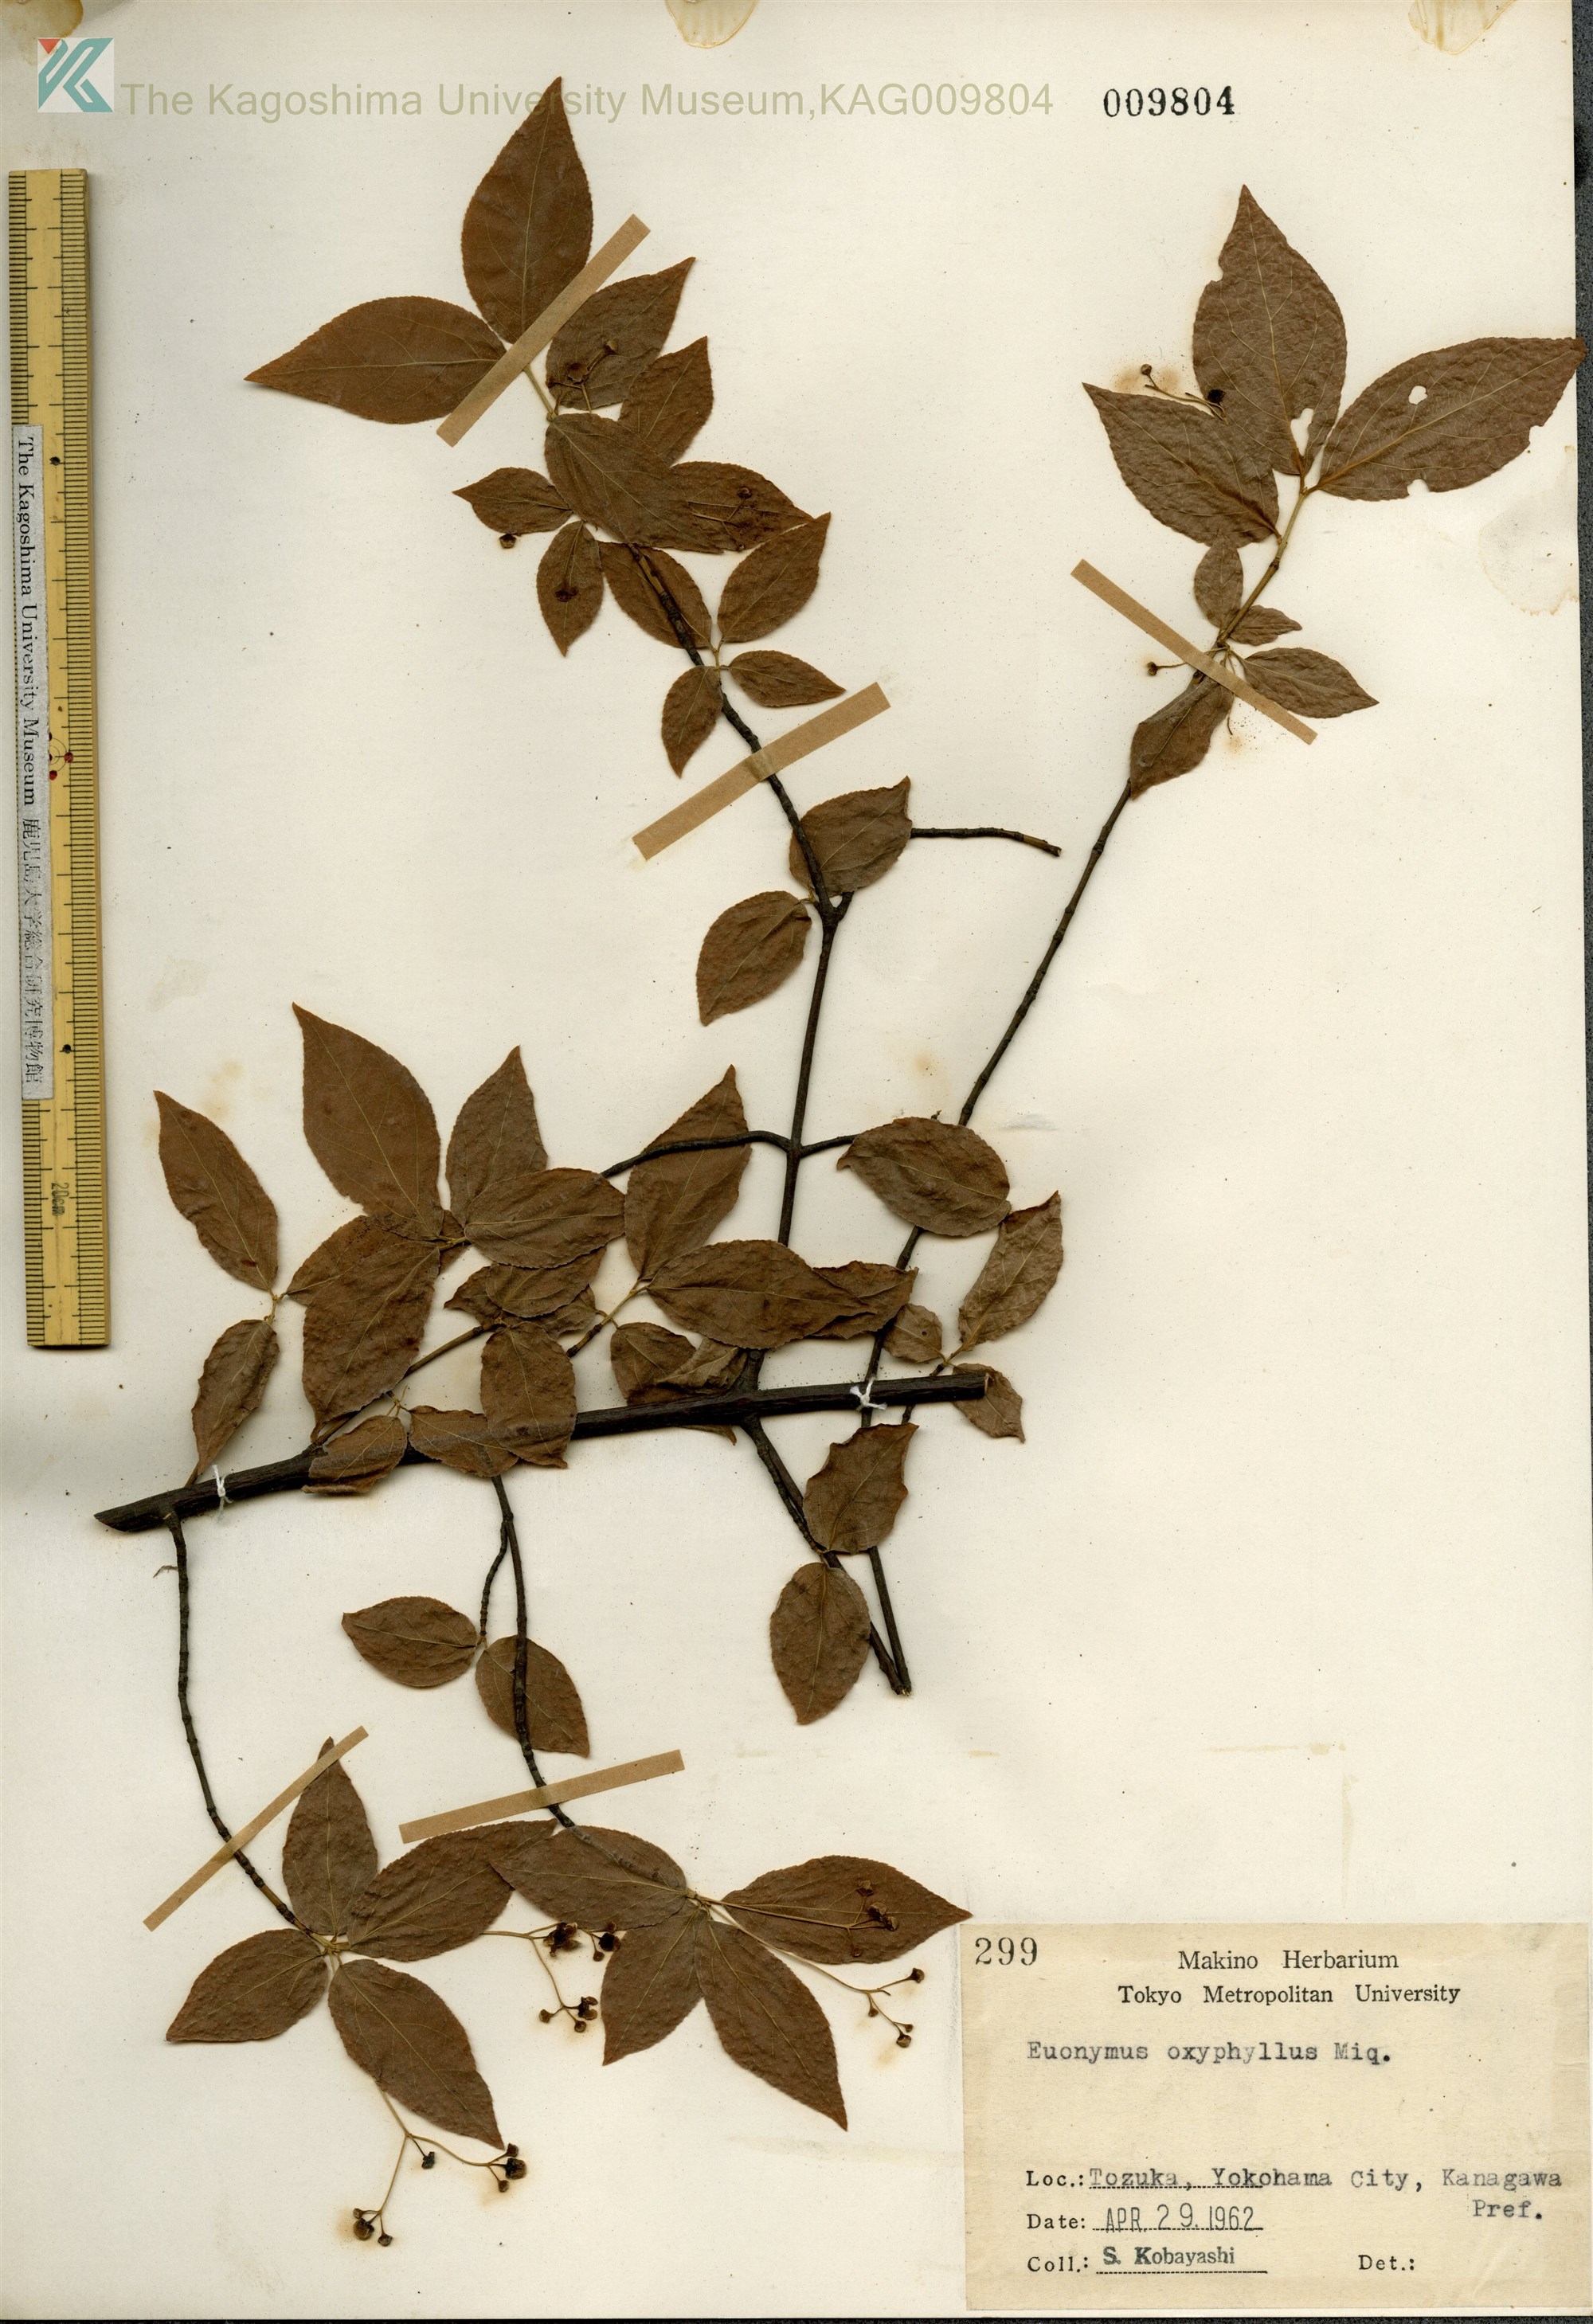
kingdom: Plantae
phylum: Tracheophyta
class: Magnoliopsida
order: Celastrales
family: Celastraceae
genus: Euonymus
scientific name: Euonymus oxyphyllus
